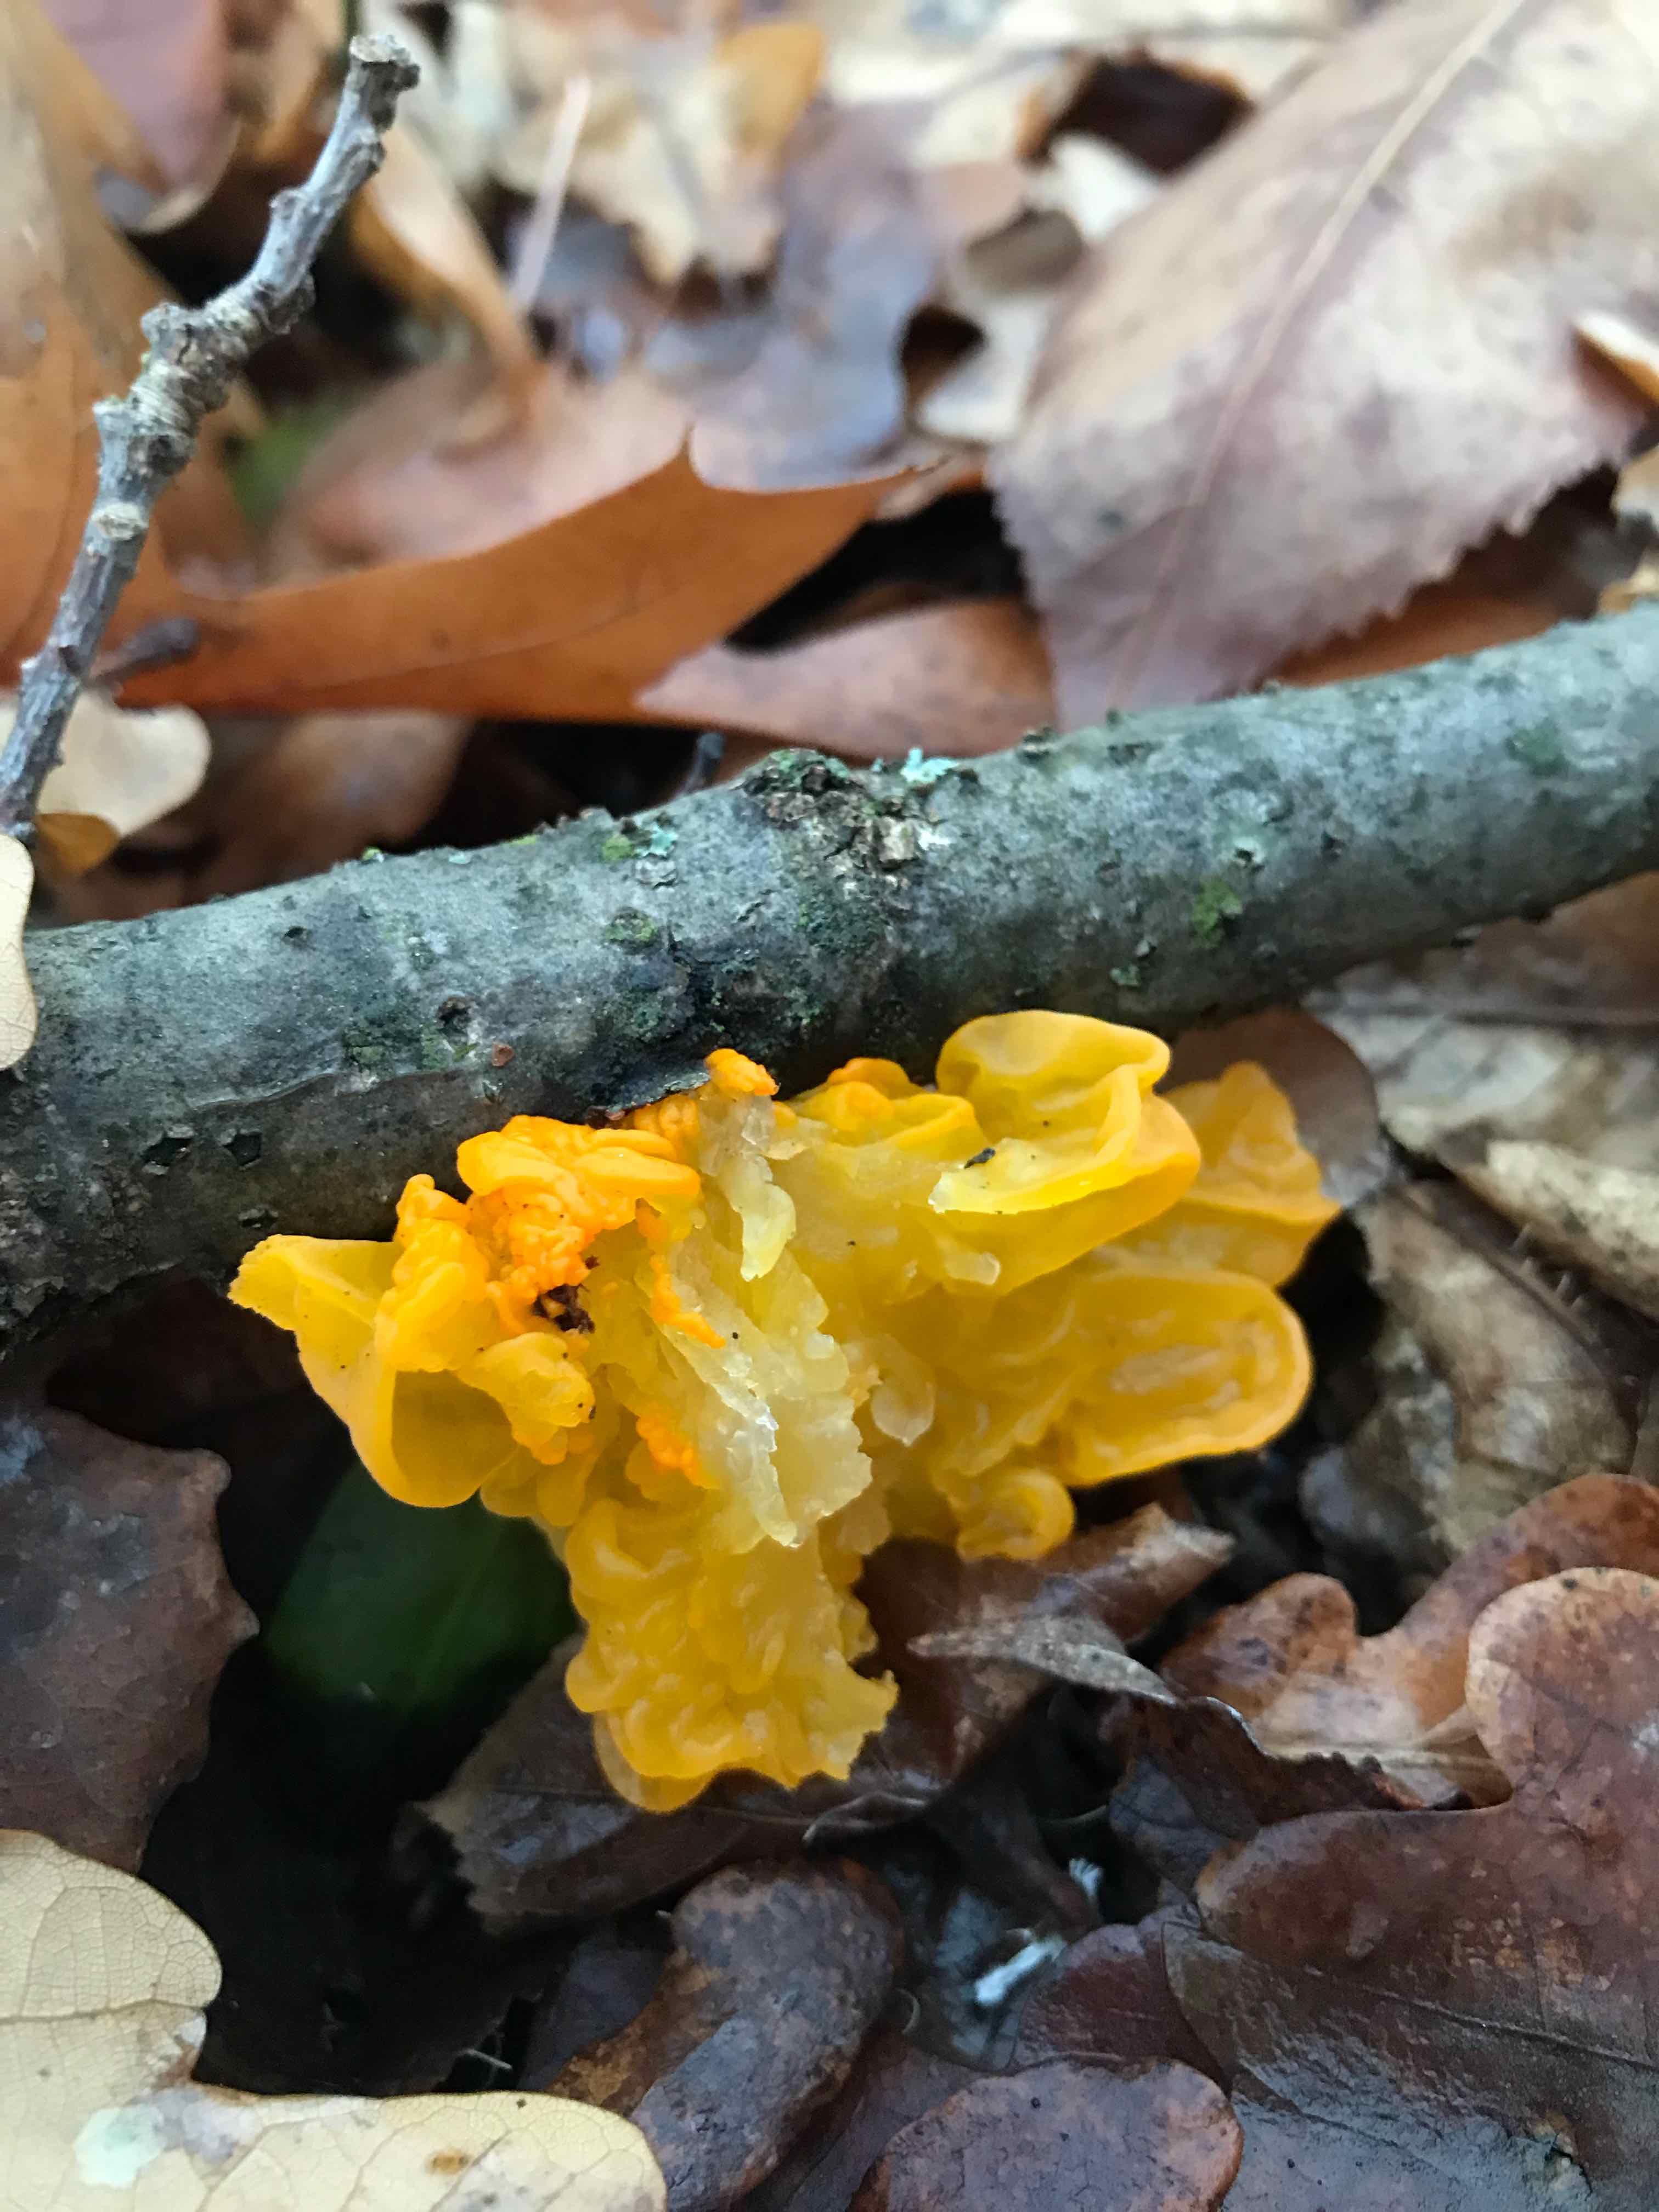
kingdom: Fungi
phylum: Basidiomycota
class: Tremellomycetes
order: Tremellales
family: Tremellaceae
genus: Tremella
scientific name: Tremella mesenterica
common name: gul bævresvamp
